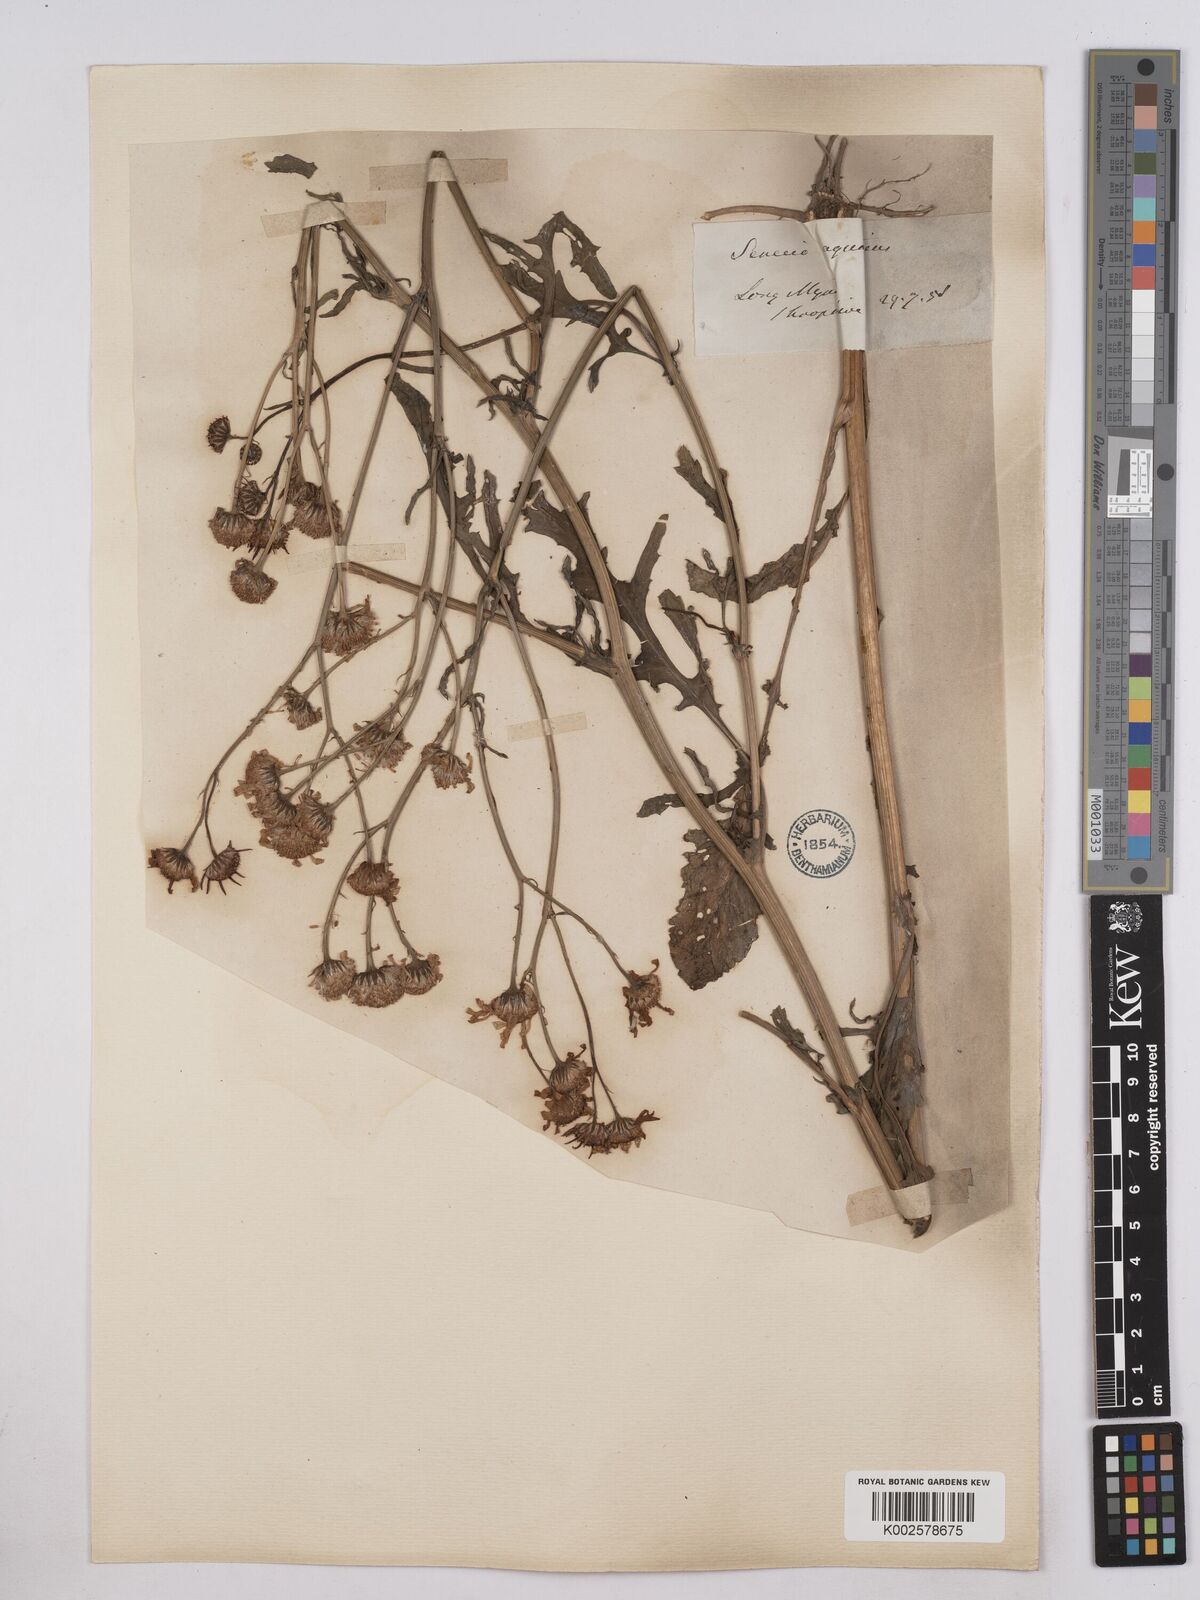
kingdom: Plantae
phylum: Tracheophyta
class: Magnoliopsida
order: Asterales
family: Asteraceae
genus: Jacobaea
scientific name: Jacobaea aquatica
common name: Water ragwort
